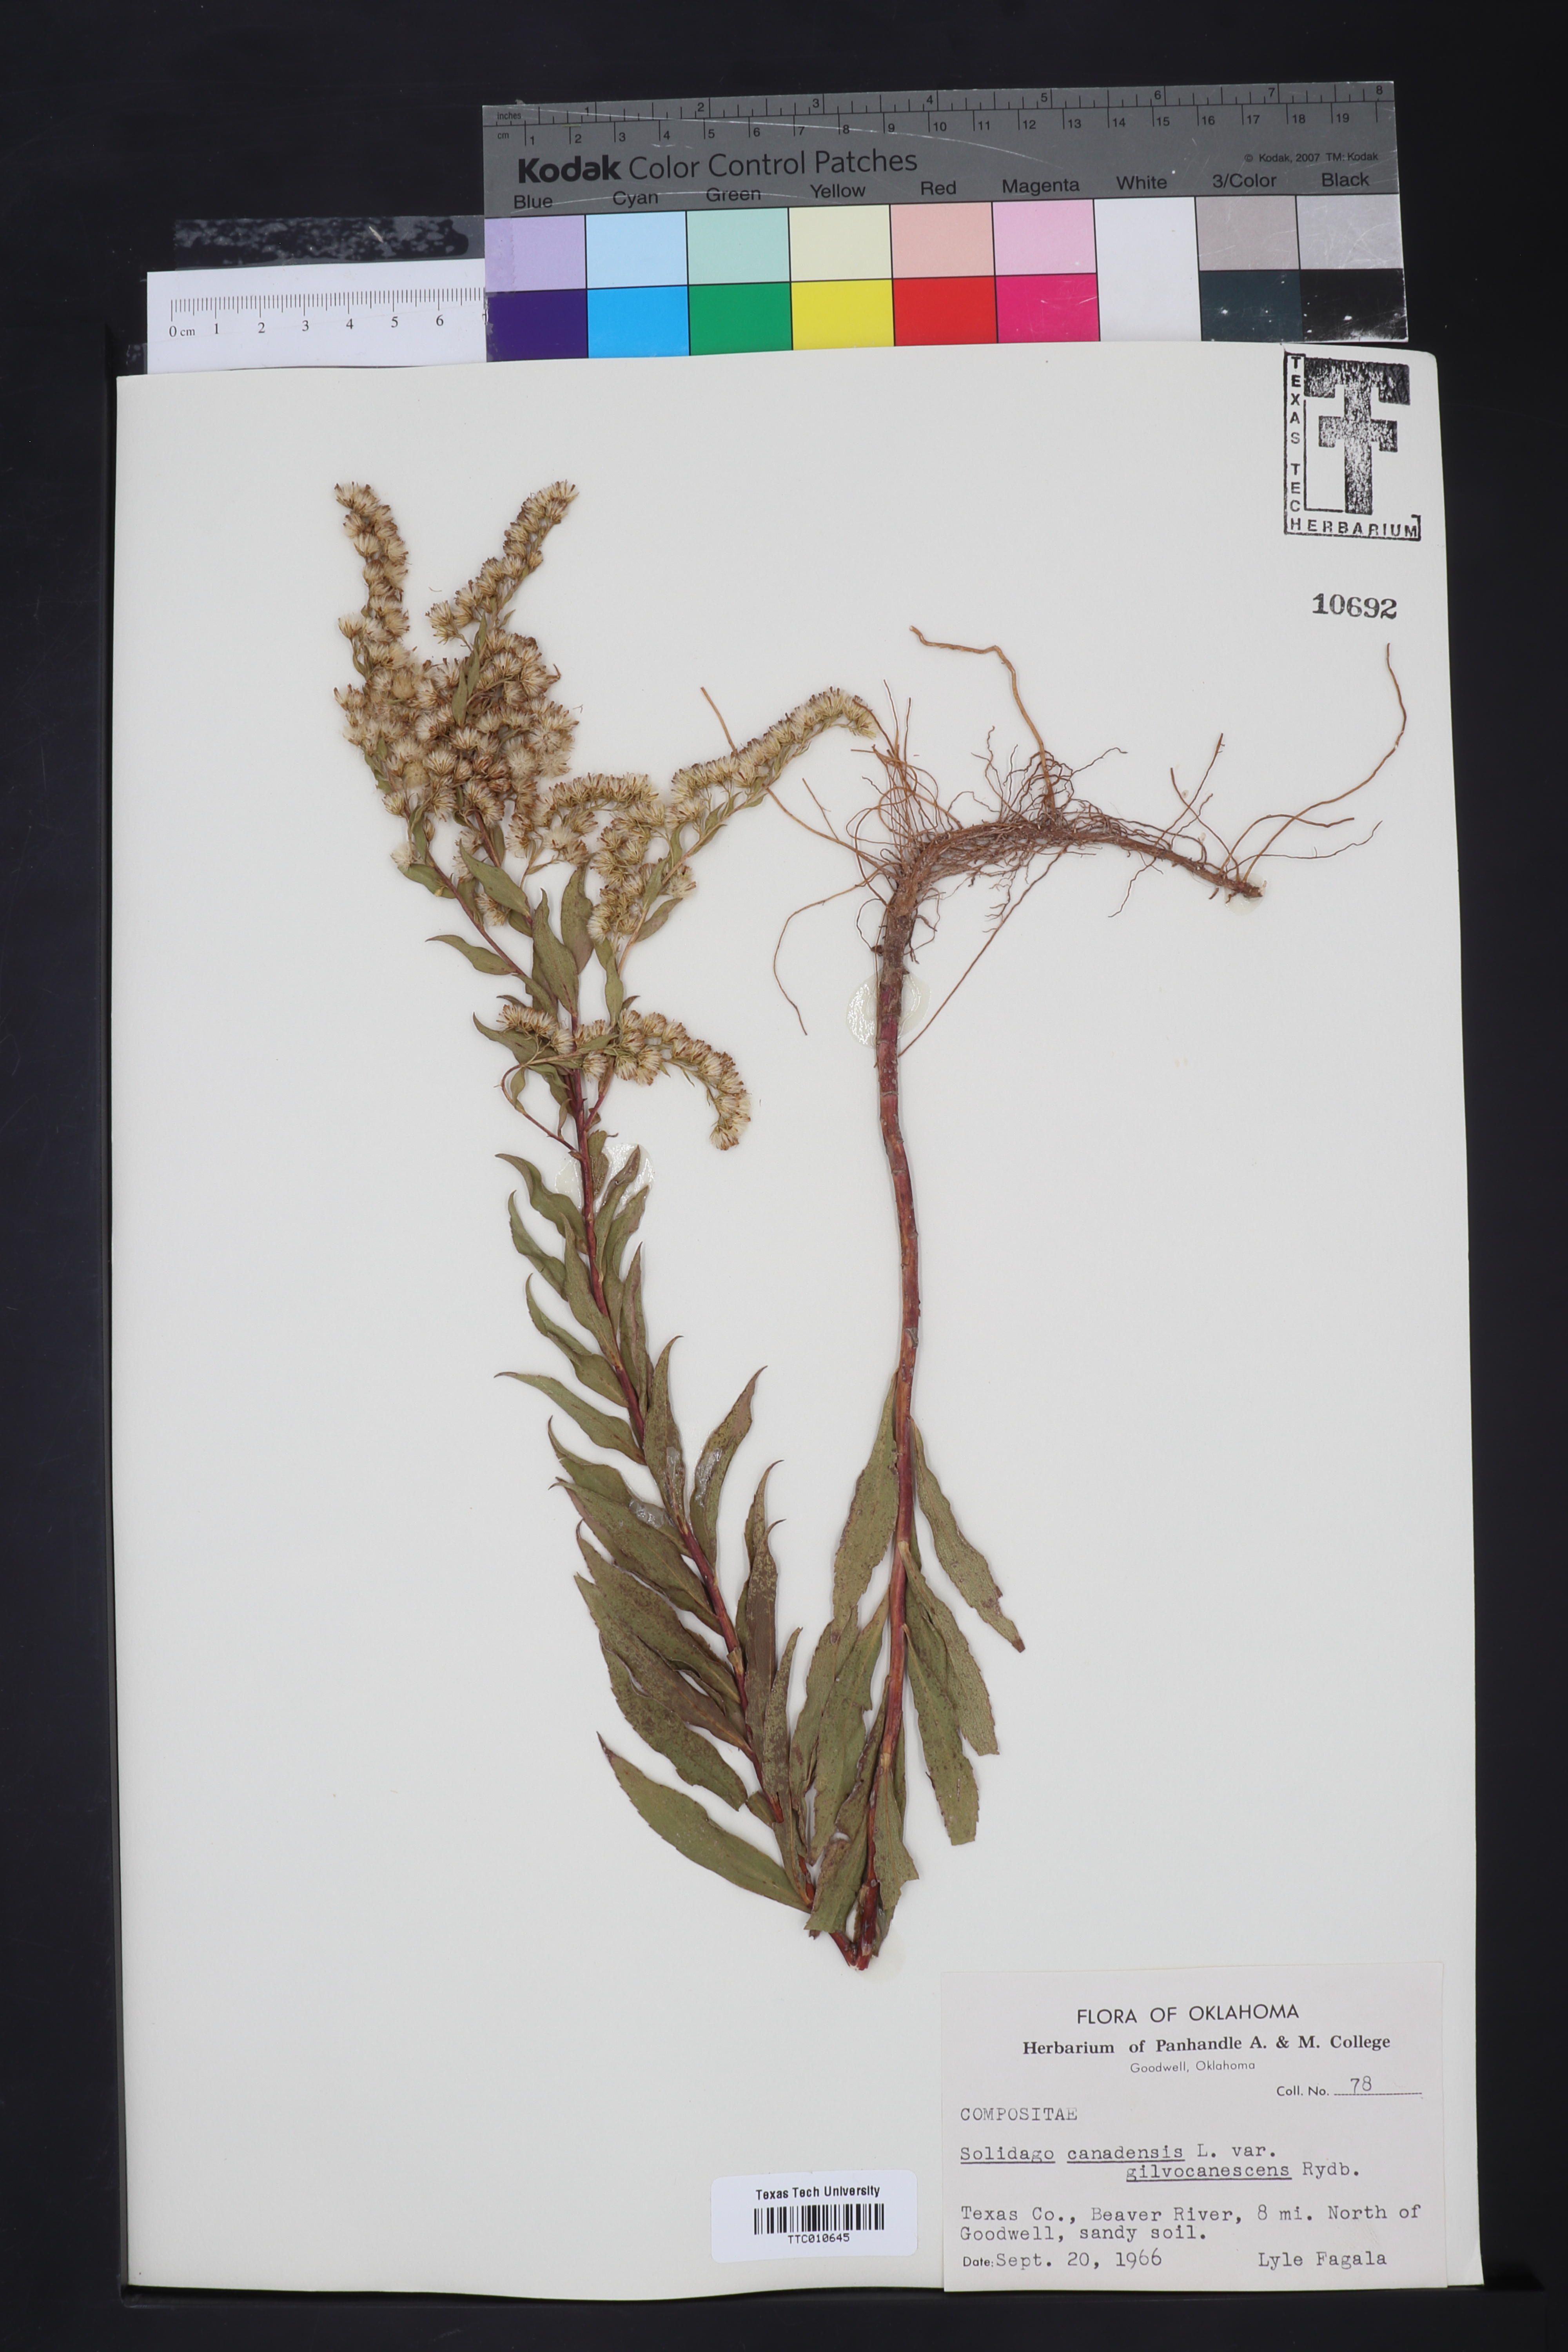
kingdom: Plantae
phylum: Tracheophyta
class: Magnoliopsida
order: Asterales
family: Asteraceae
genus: Solidago
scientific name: Solidago altissima
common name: Late goldenrod
